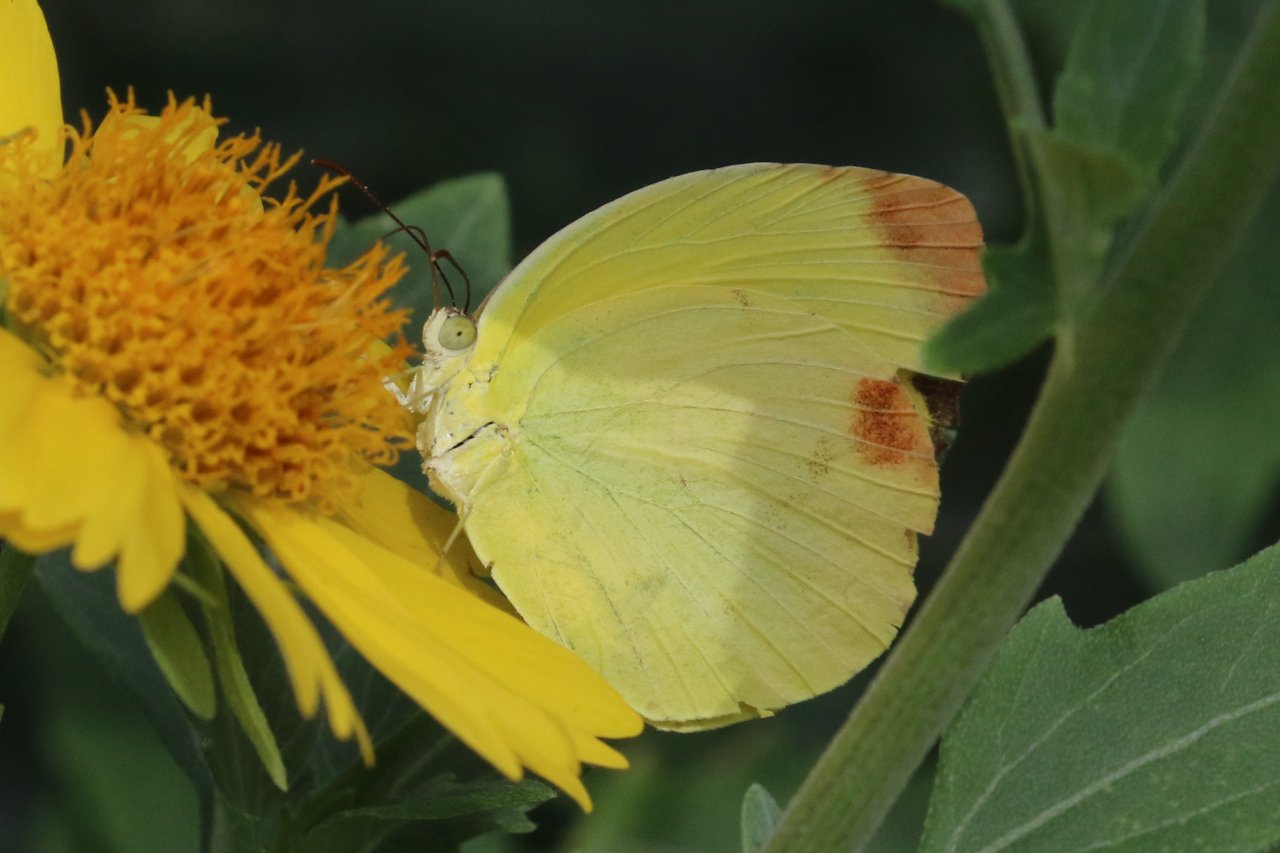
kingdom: Animalia
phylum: Arthropoda
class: Insecta
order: Lepidoptera
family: Pieridae
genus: Pyrisitia
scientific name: Pyrisitia dina
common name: Dina Yellow
